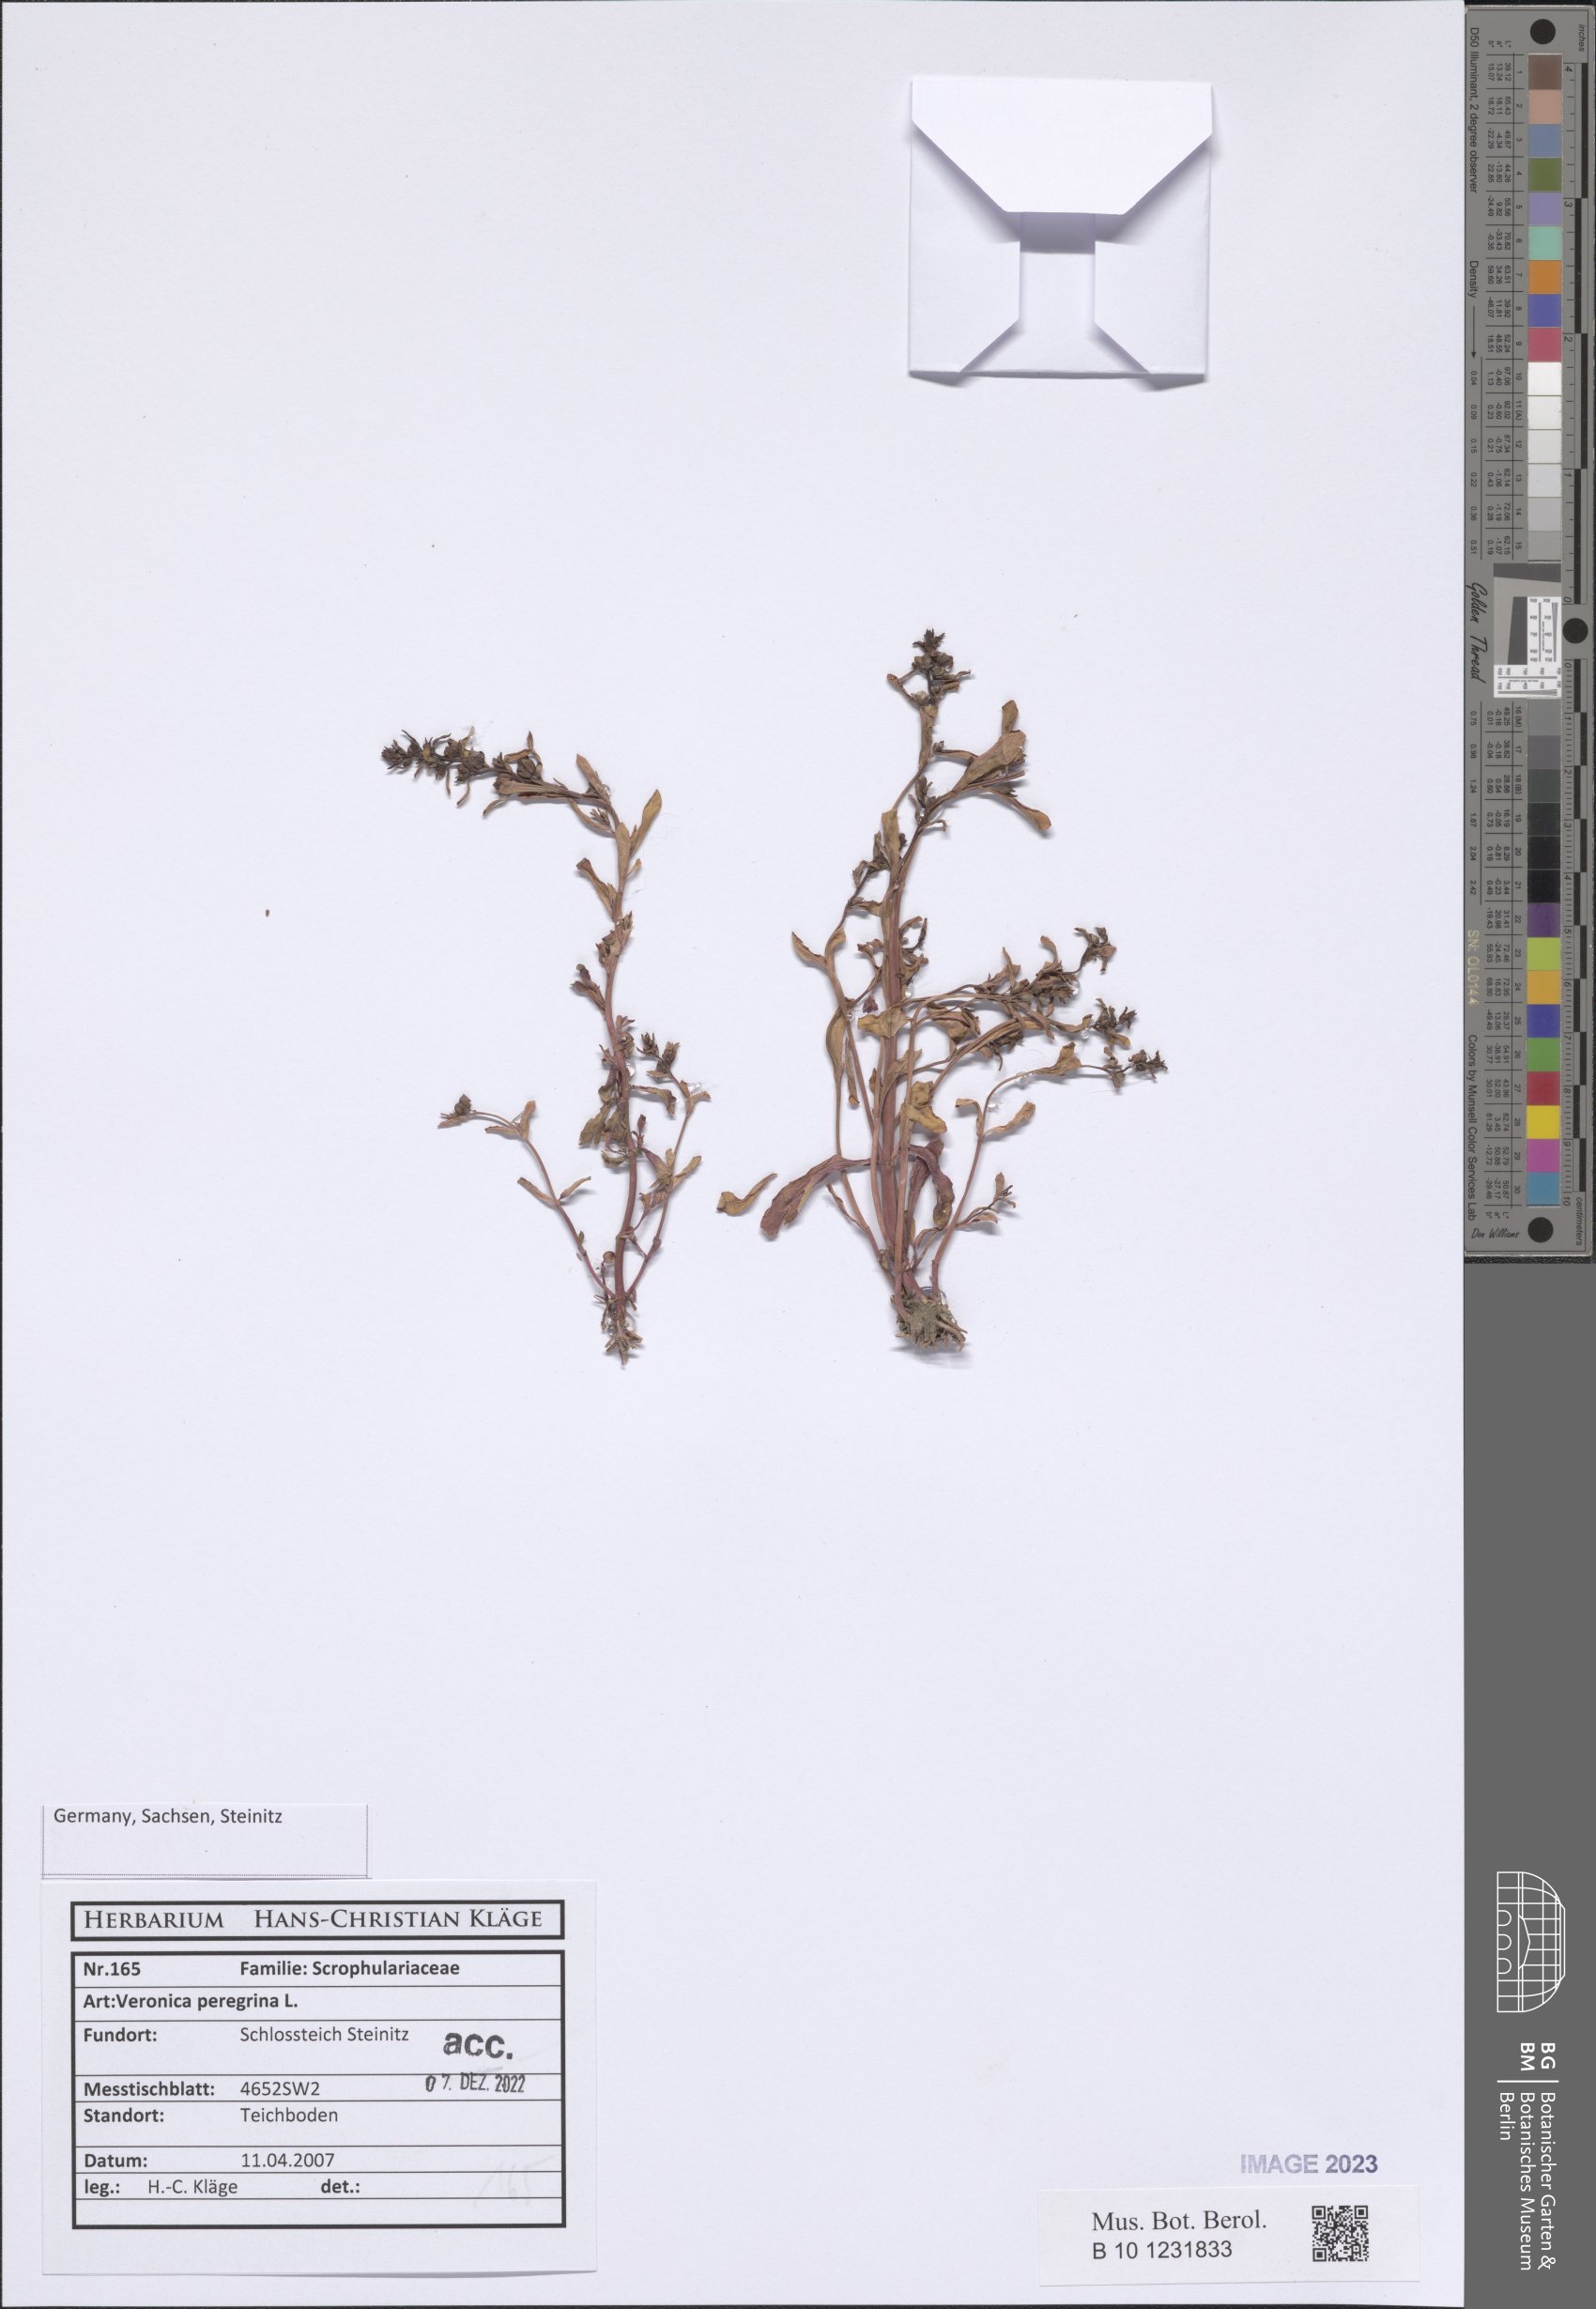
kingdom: Plantae
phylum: Tracheophyta
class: Magnoliopsida
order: Lamiales
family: Plantaginaceae
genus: Veronica
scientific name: Veronica peregrina
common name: Neckweed
